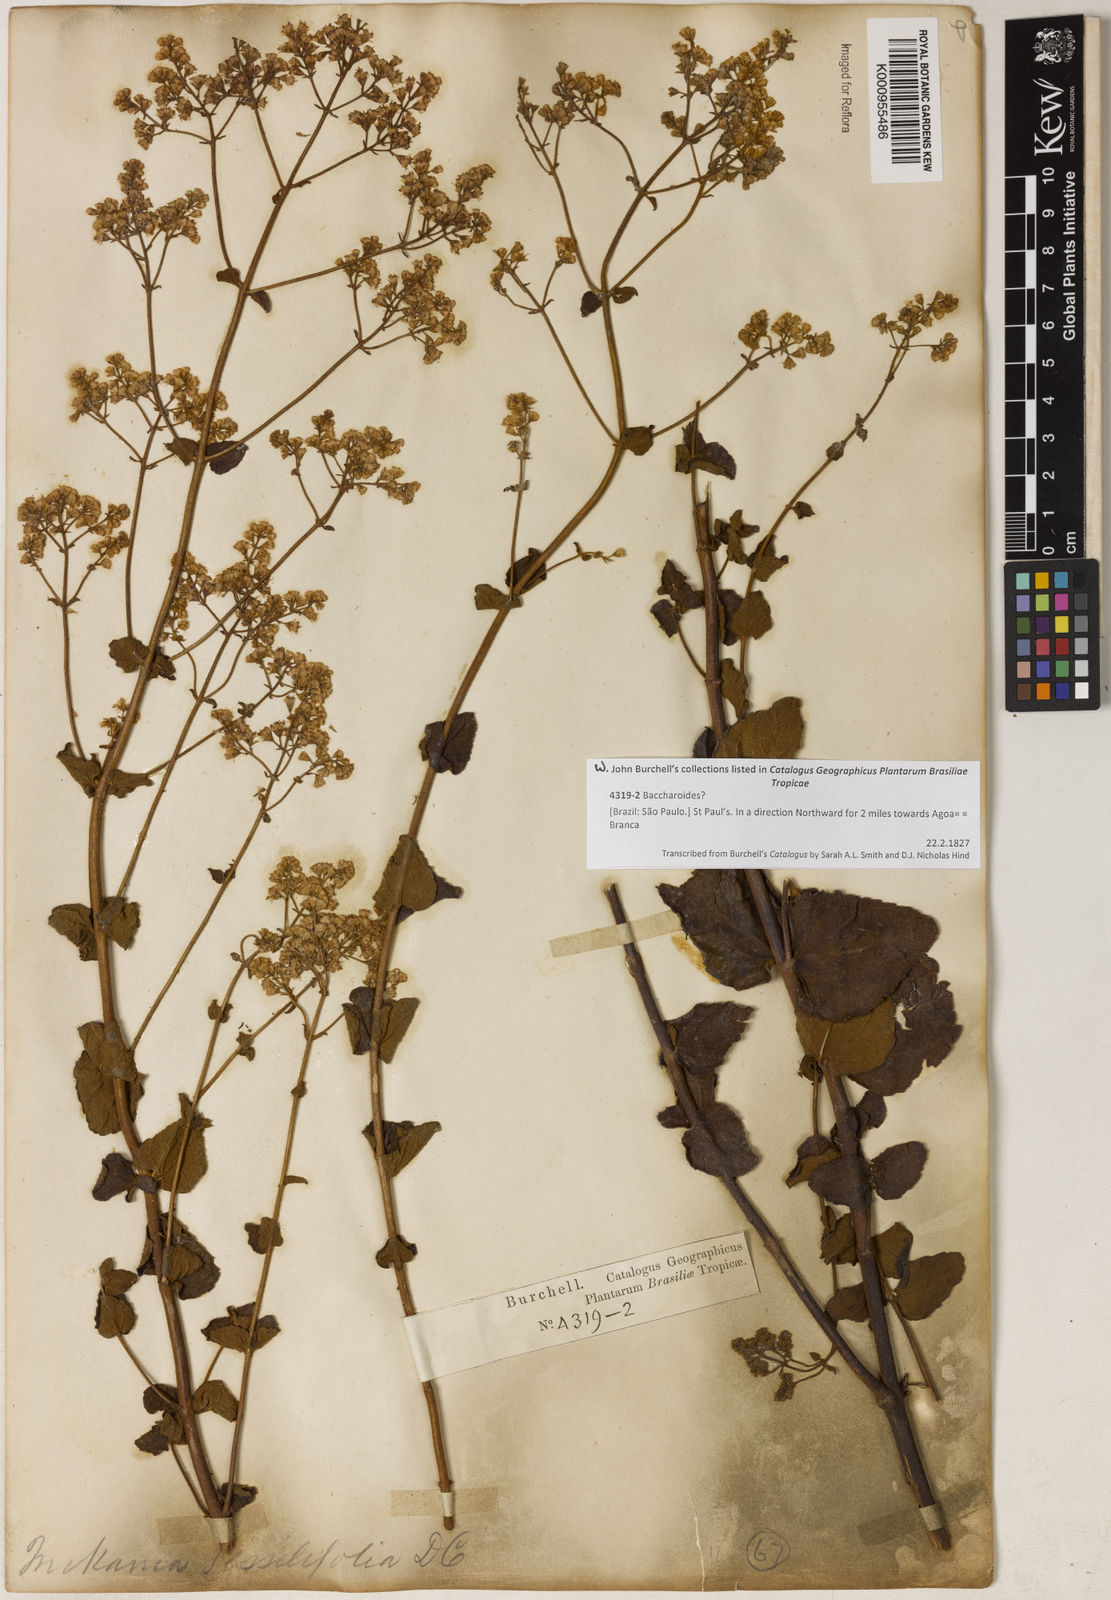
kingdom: Plantae
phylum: Tracheophyta
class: Magnoliopsida
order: Asterales
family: Asteraceae
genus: Mikania
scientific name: Mikania sessilifolia
